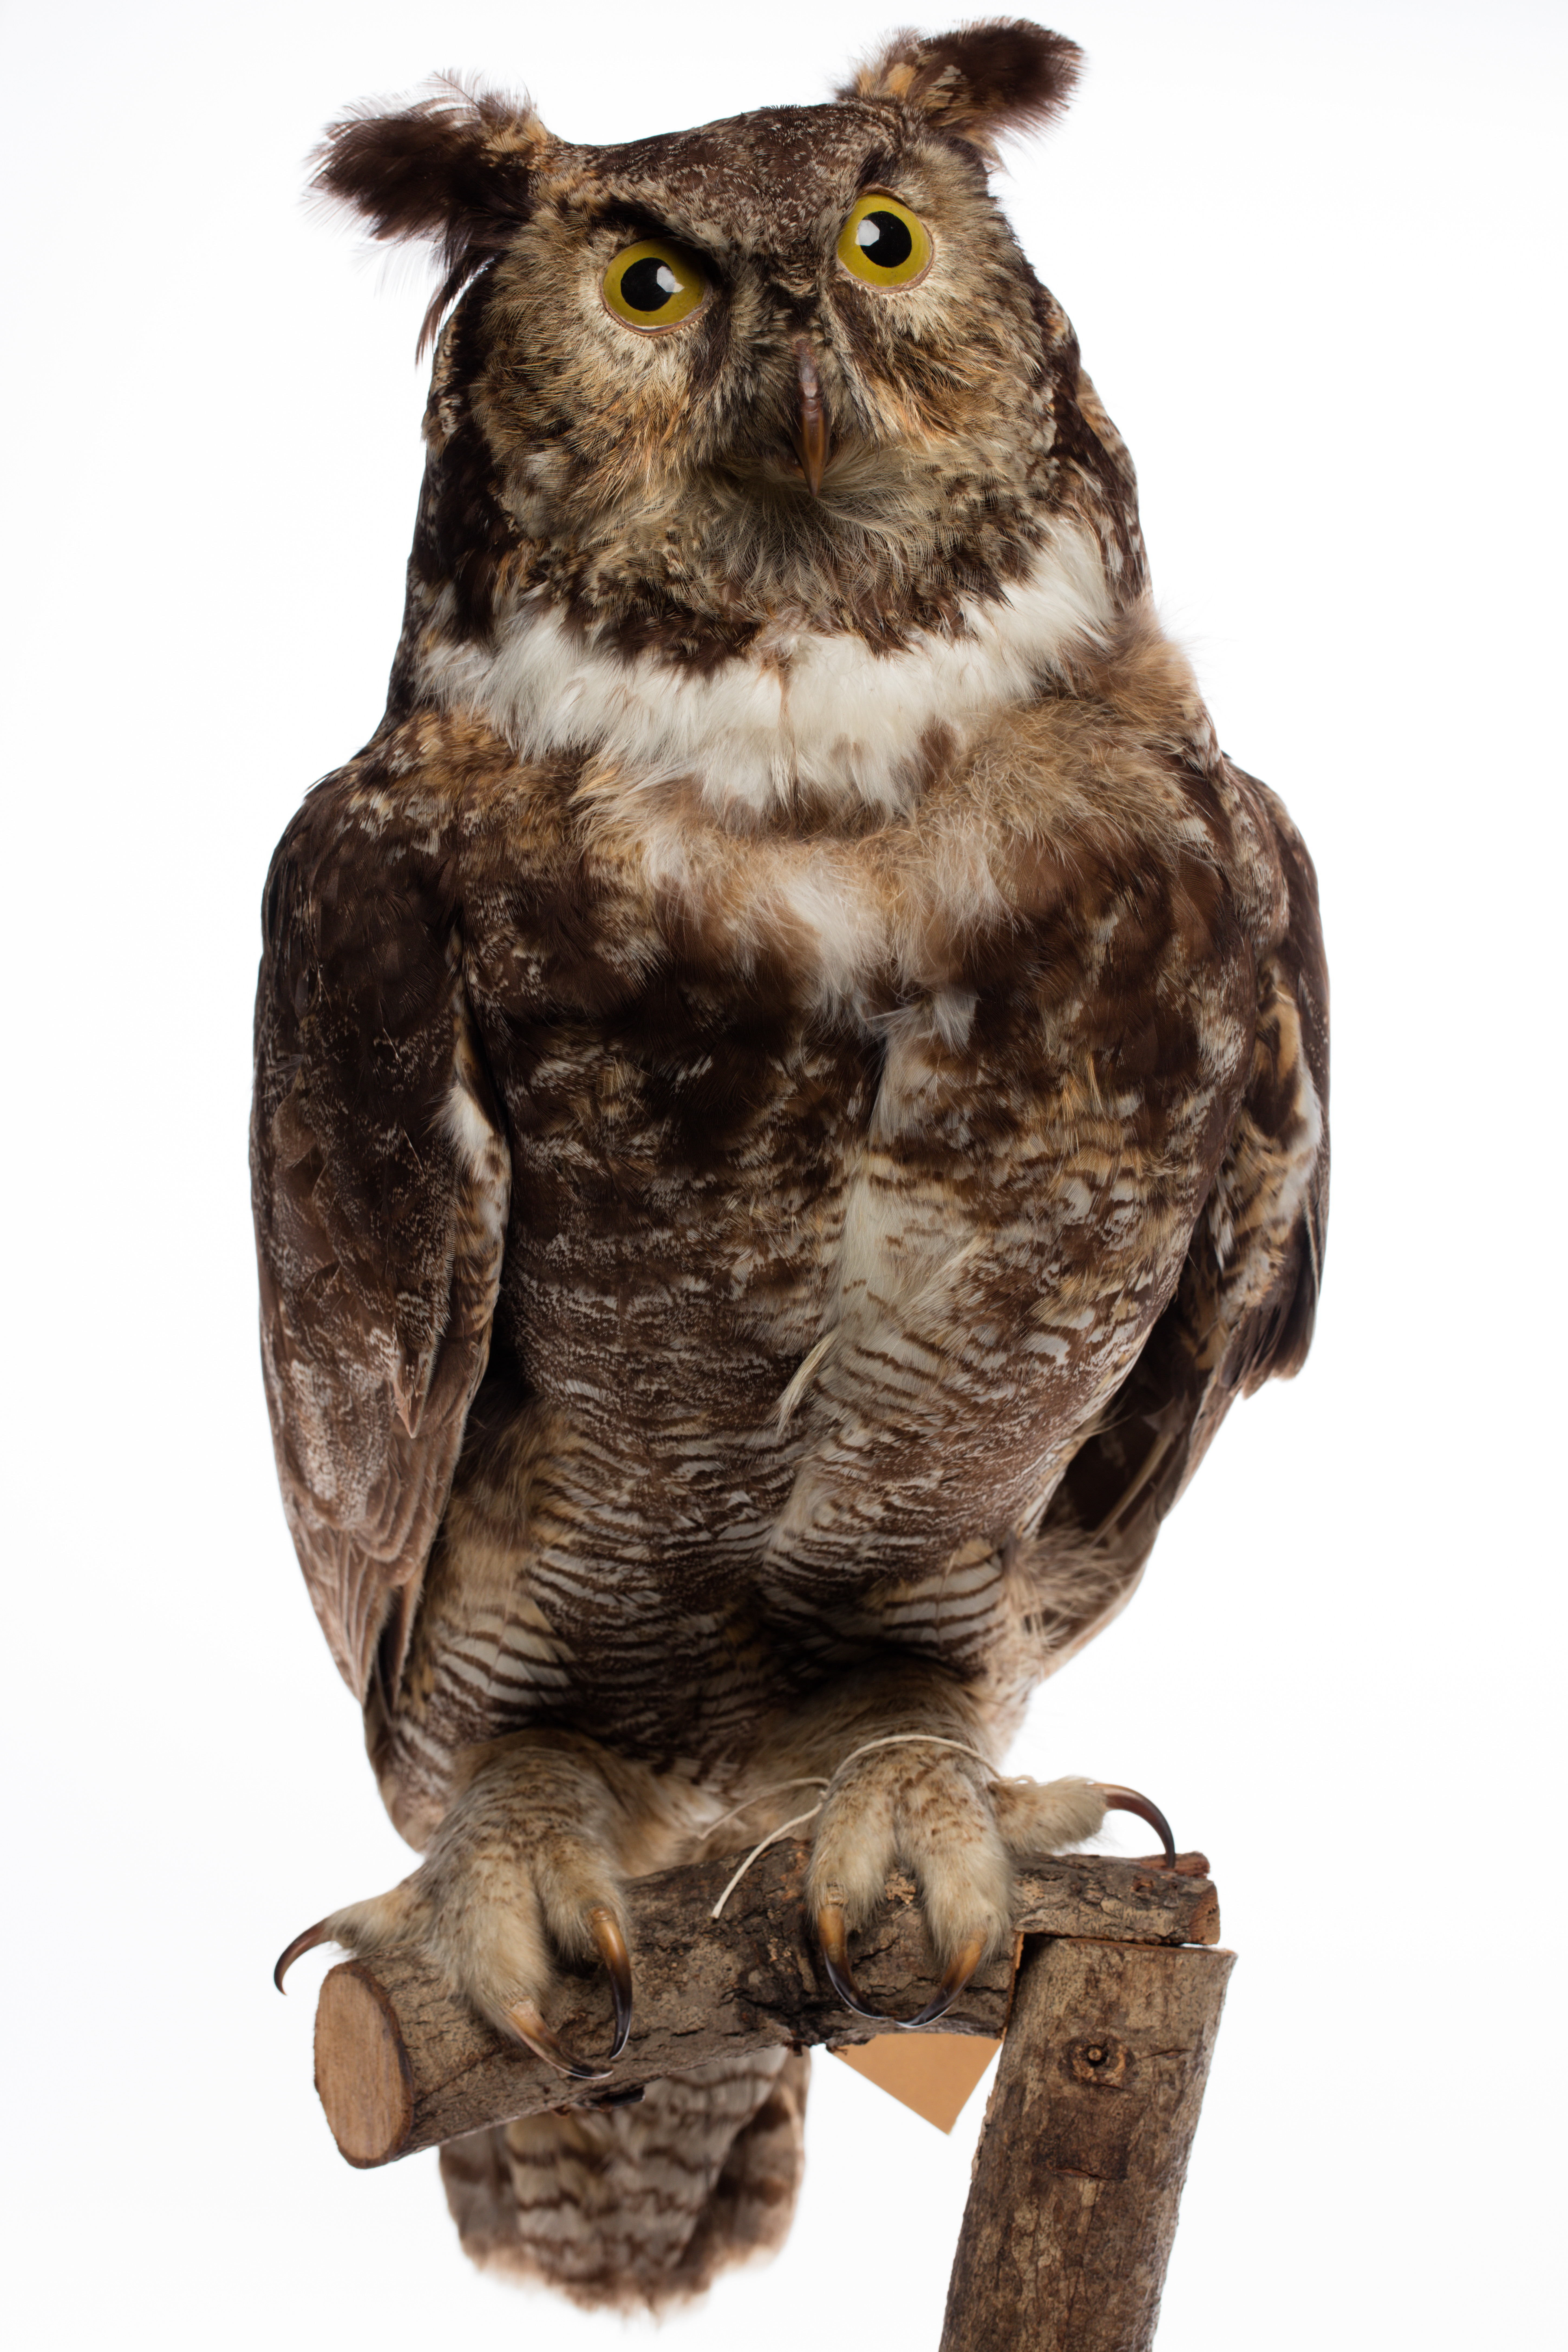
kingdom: Animalia
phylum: Chordata
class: Aves
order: Strigiformes
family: Strigidae
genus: Bubo
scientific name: Bubo virginianus
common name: Great horned owl
